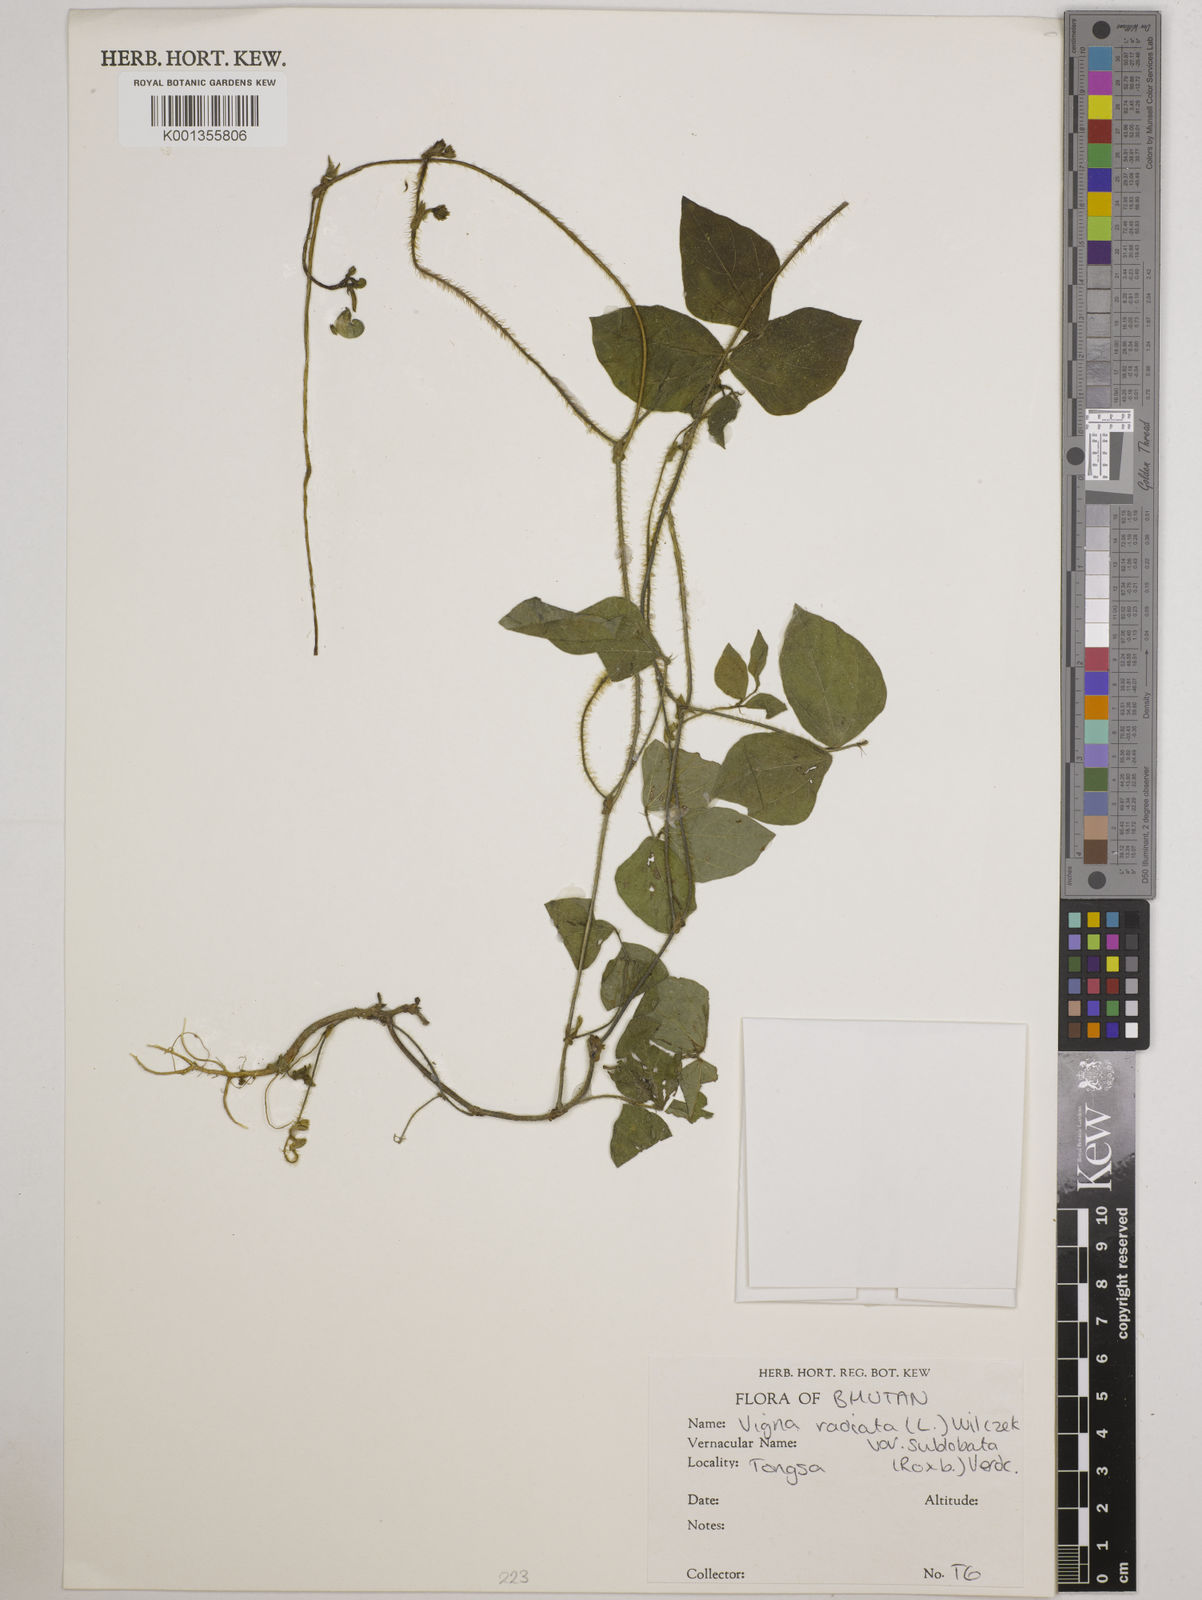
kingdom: Plantae
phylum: Tracheophyta
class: Magnoliopsida
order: Fabales
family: Fabaceae
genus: Vigna
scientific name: Vigna radiata
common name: Mung-bean
